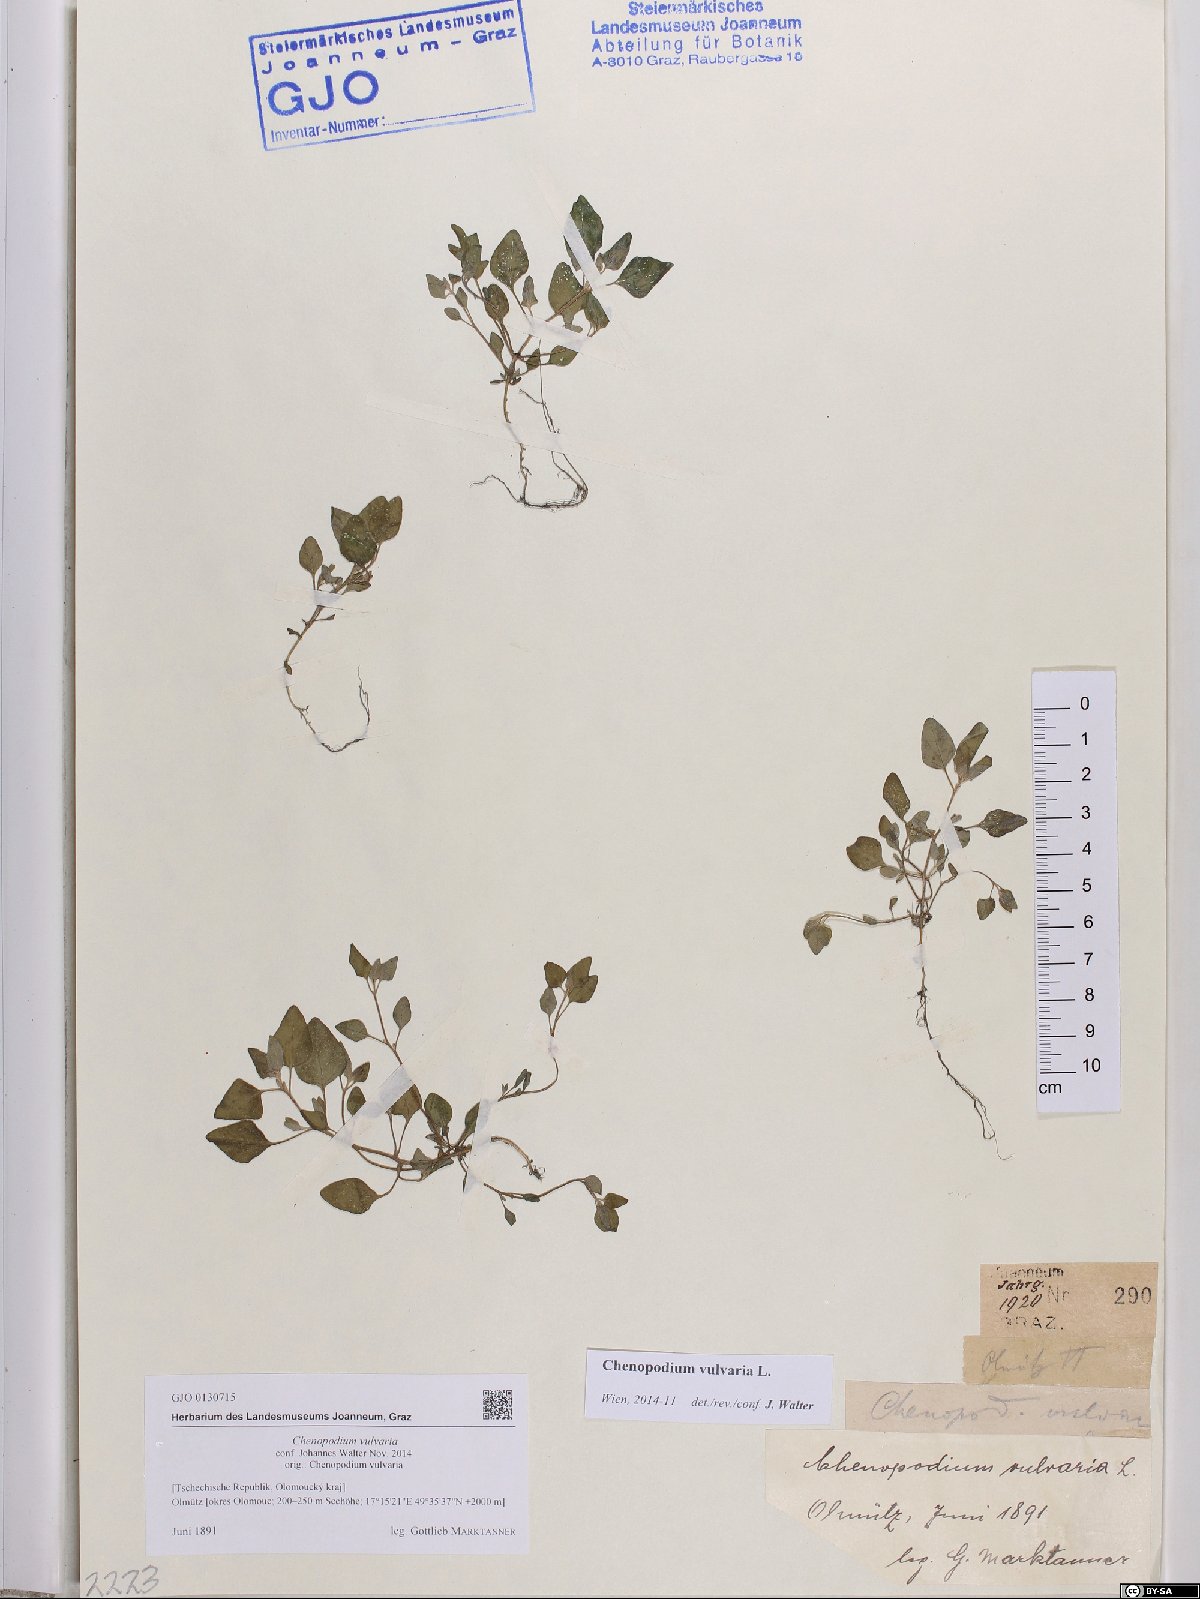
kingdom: Plantae
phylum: Tracheophyta
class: Magnoliopsida
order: Caryophyllales
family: Amaranthaceae
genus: Chenopodium
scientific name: Chenopodium vulvaria
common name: Stinking goosefoot
